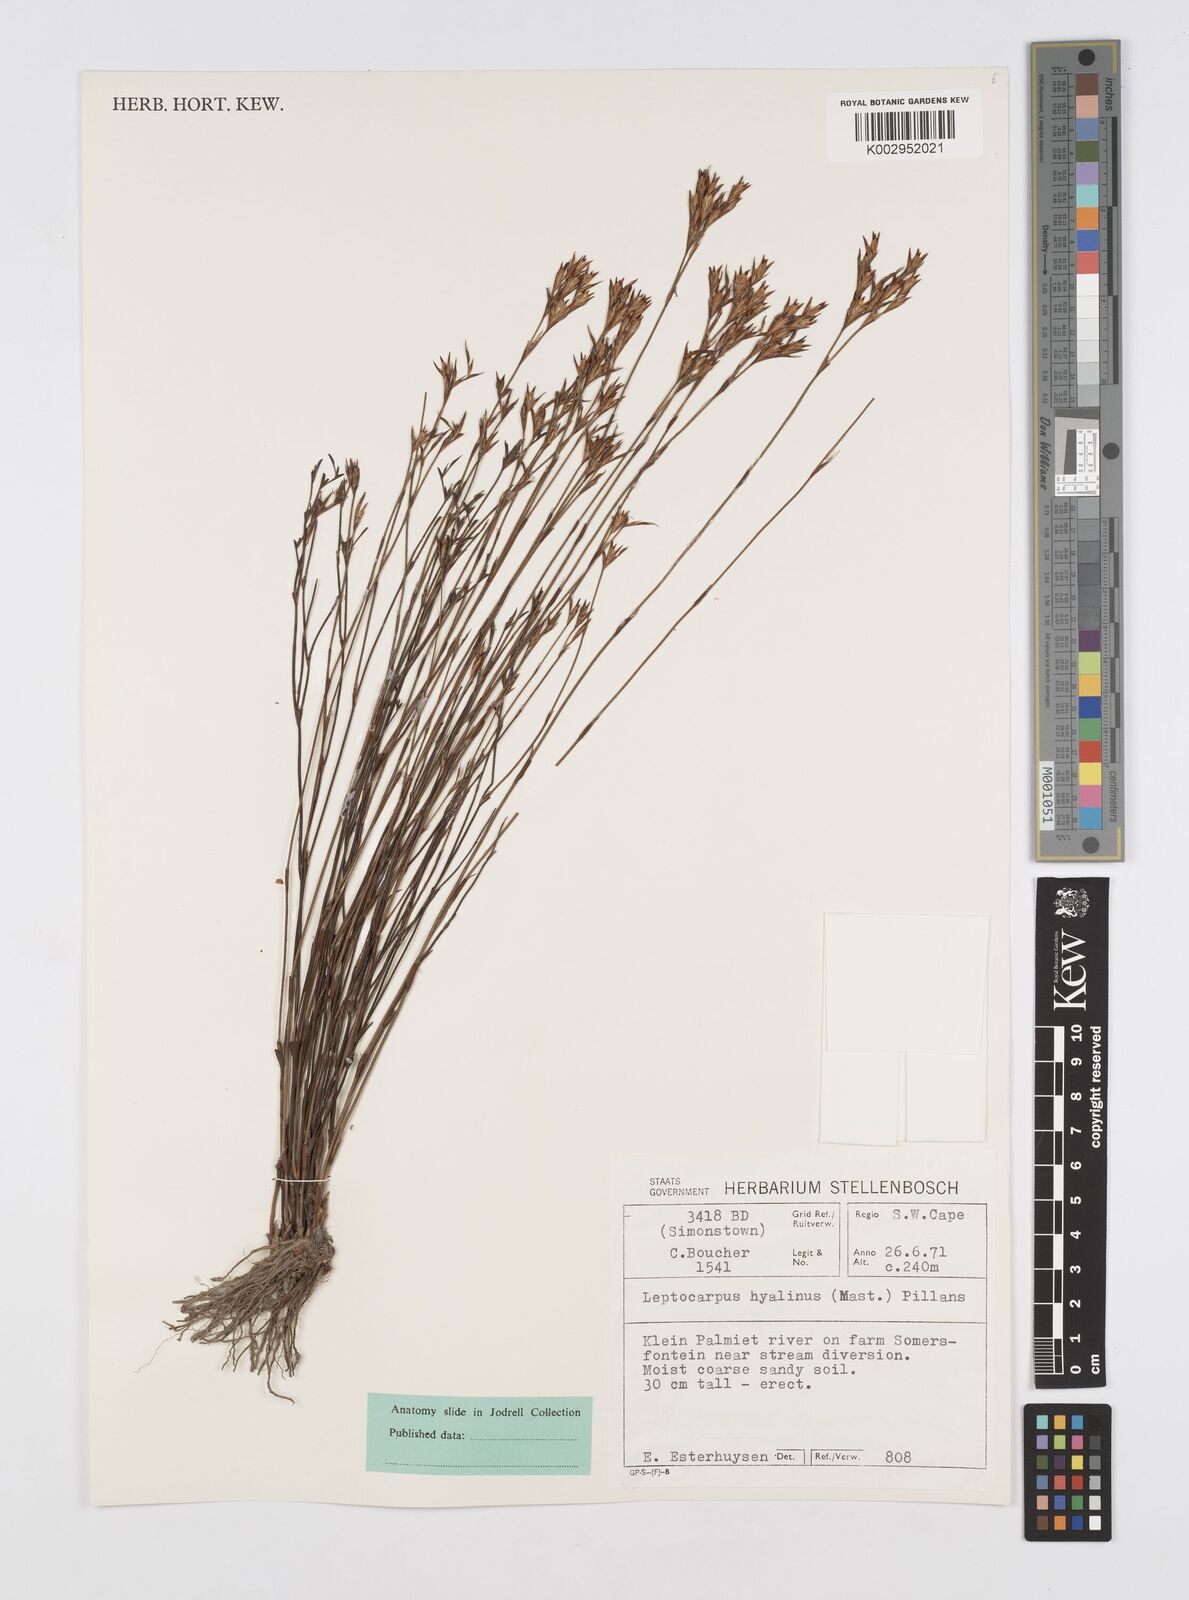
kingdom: Plantae
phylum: Tracheophyta
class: Liliopsida
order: Poales
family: Restionaceae
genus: Restio
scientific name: Restio hyalinus
